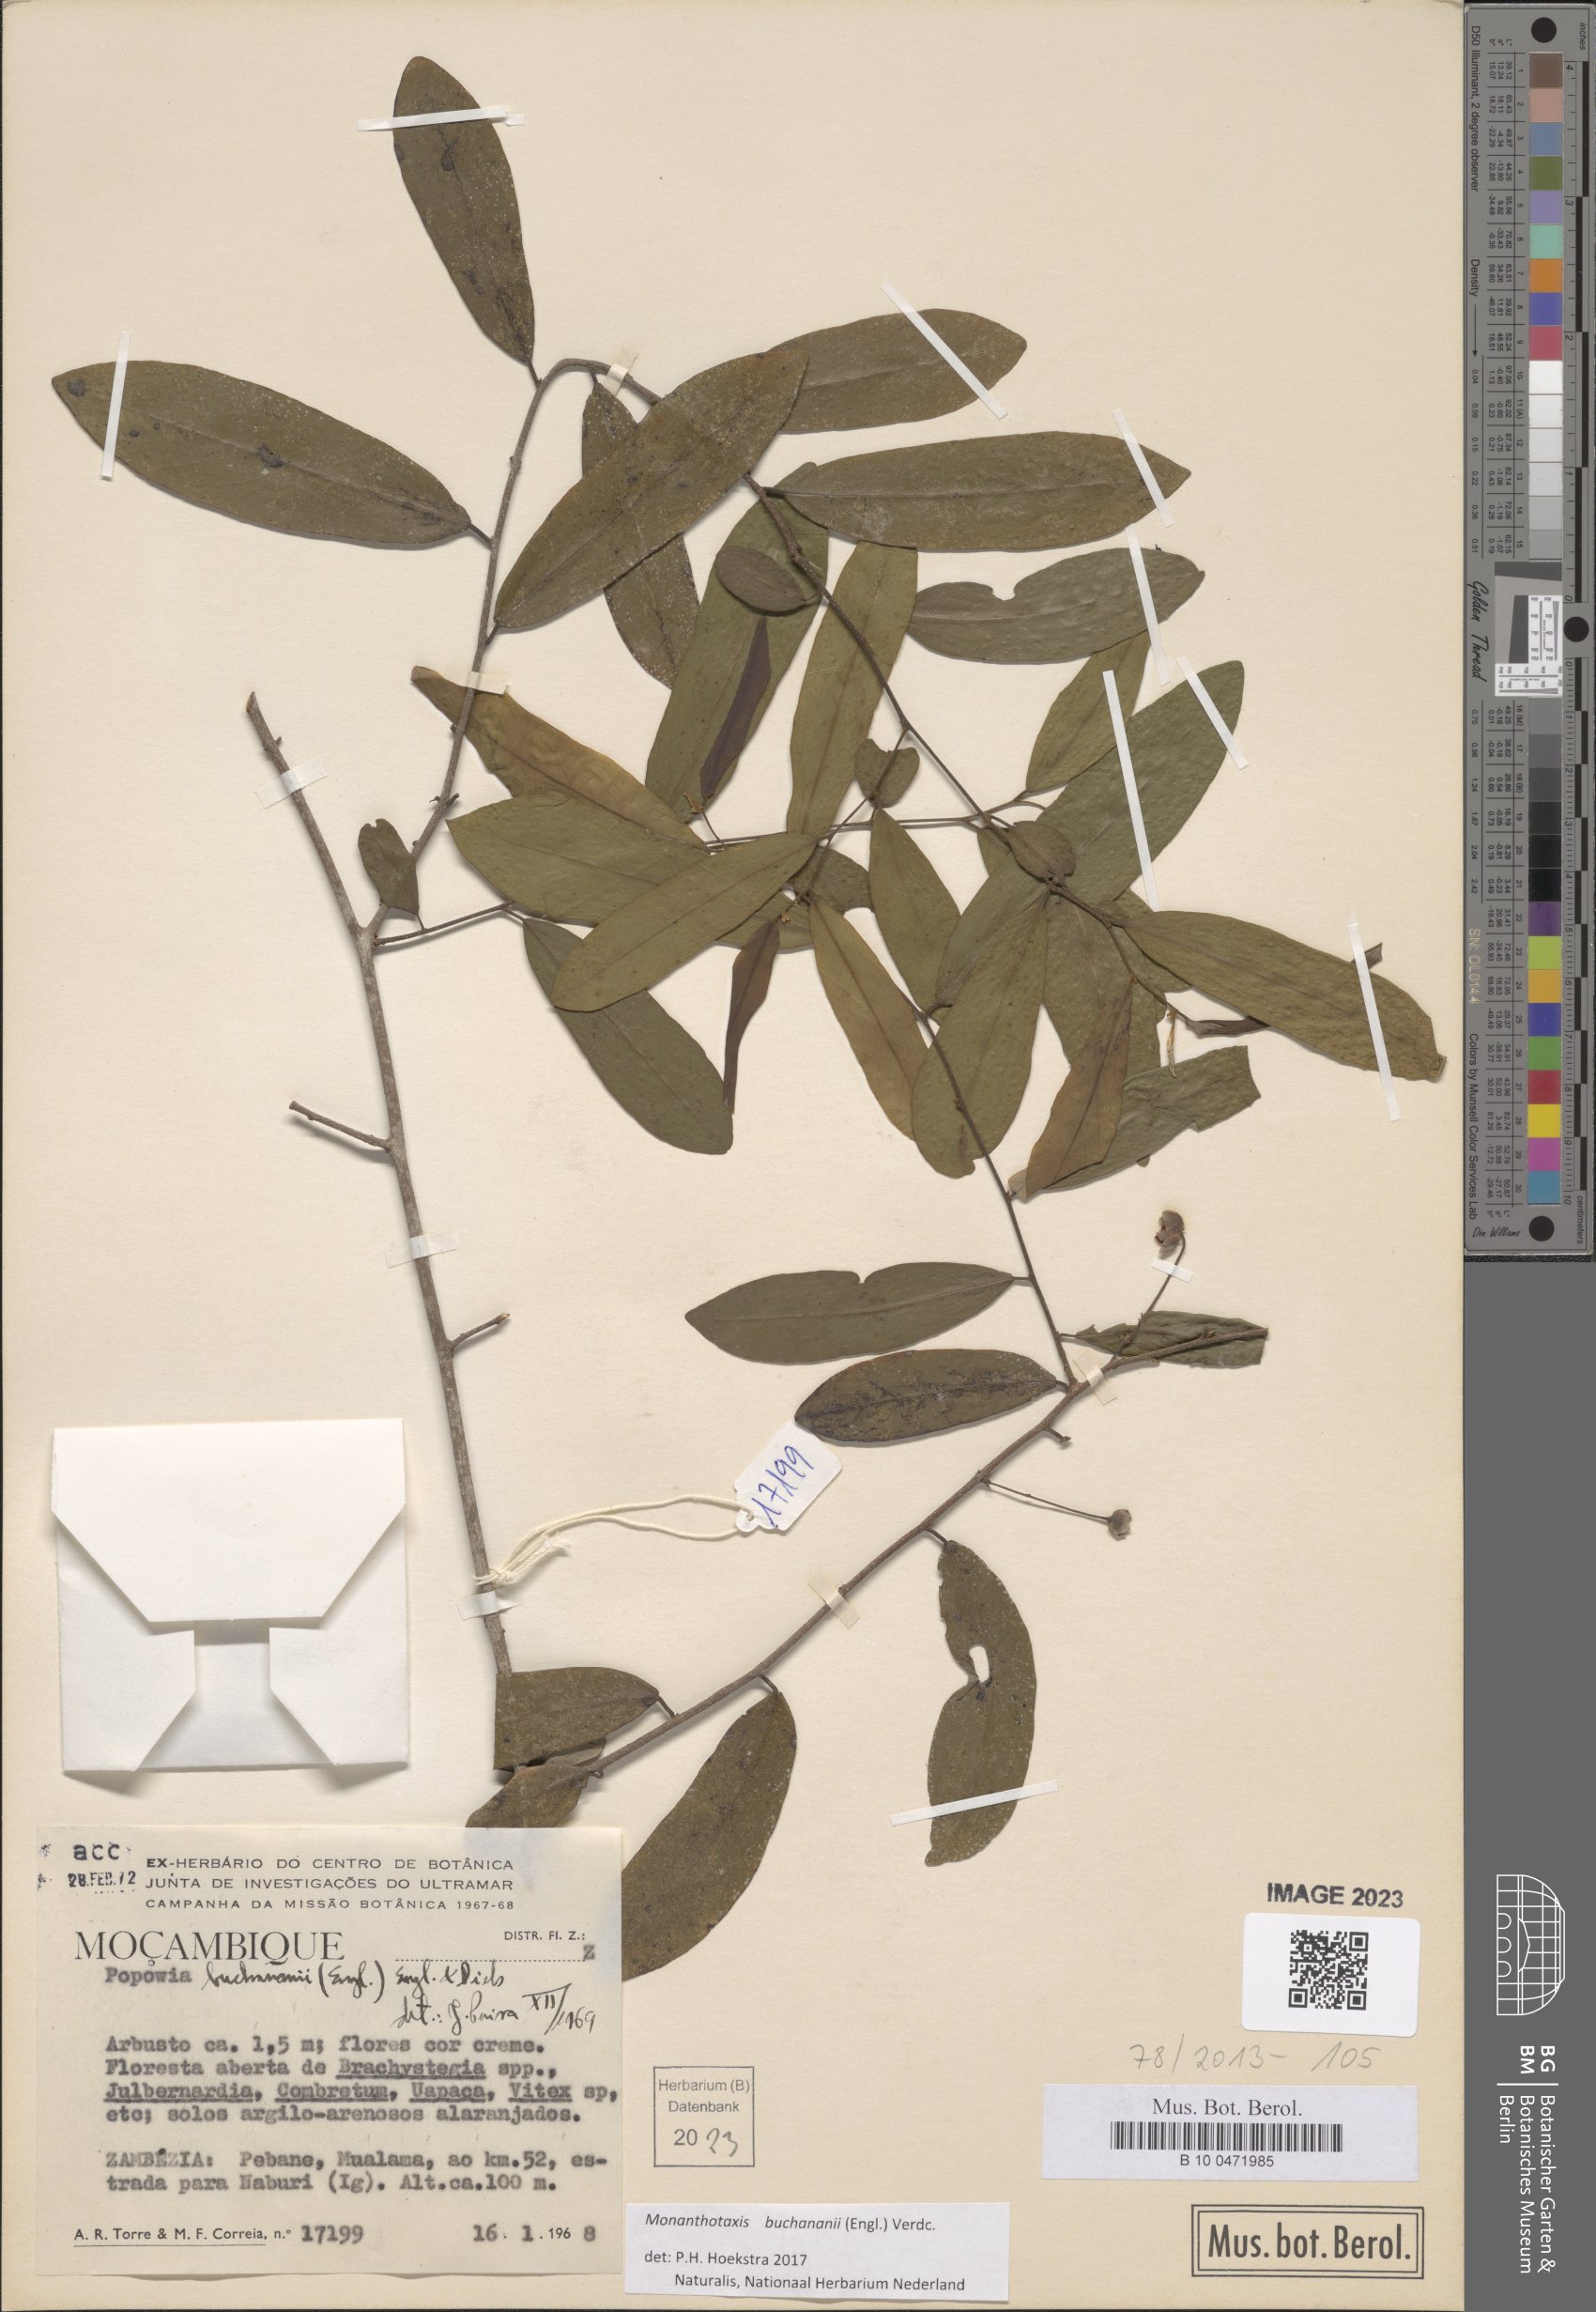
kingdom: Plantae
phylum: Tracheophyta
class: Magnoliopsida
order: Magnoliales
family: Annonaceae
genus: Monanthotaxis
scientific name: Monanthotaxis buchananii
